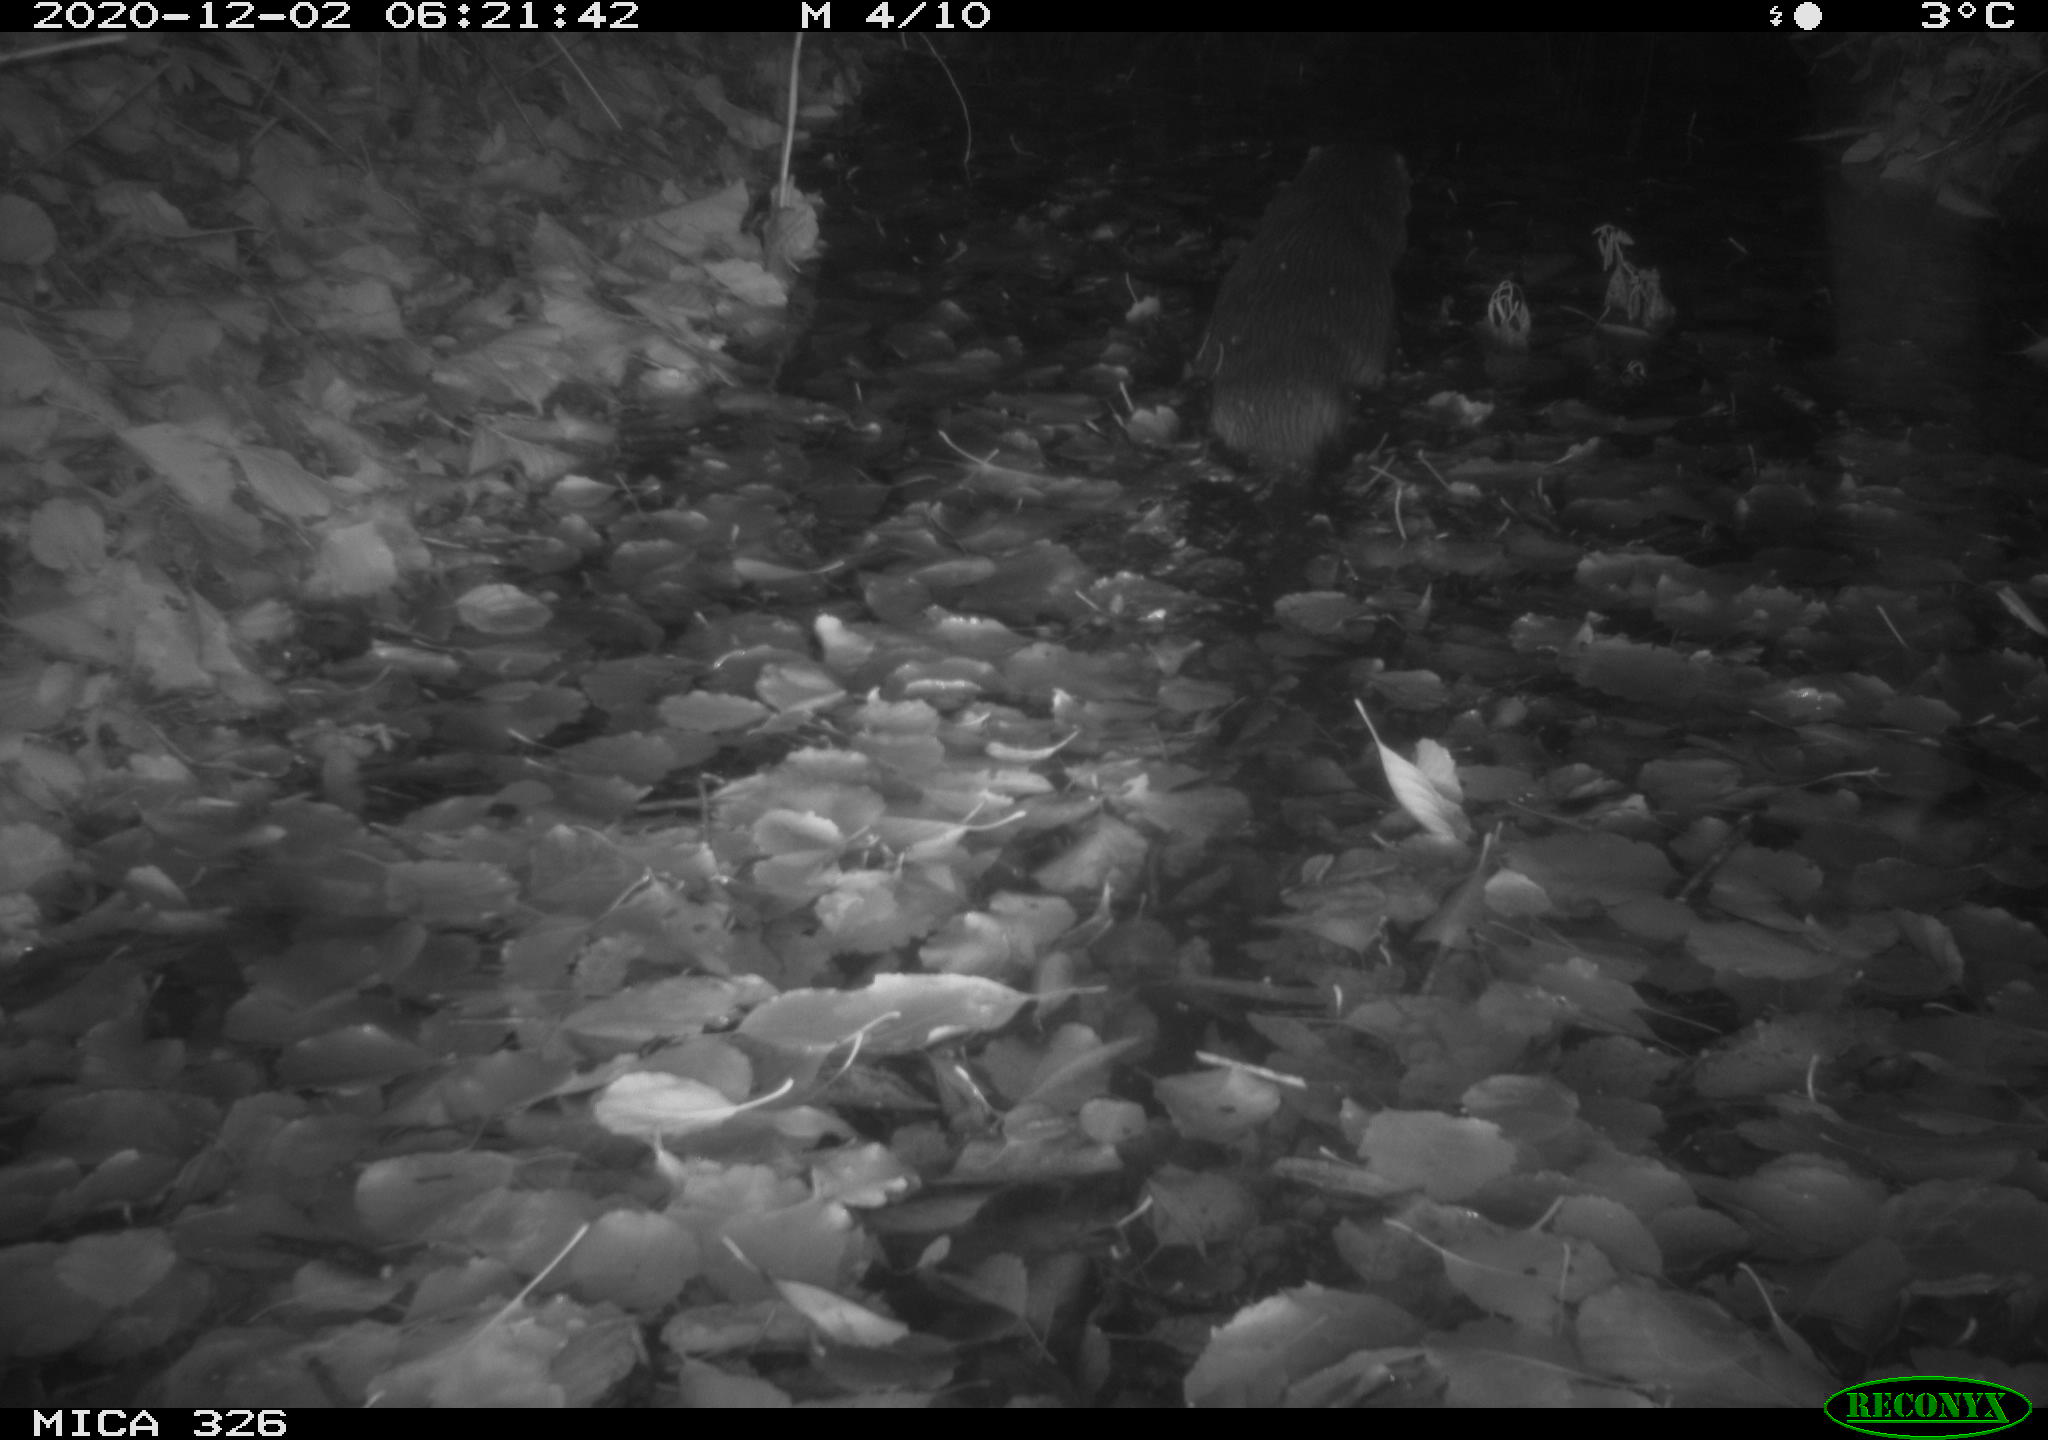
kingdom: Animalia
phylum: Chordata
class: Mammalia
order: Carnivora
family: Mustelidae
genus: Lutra
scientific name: Lutra lutra
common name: European otter
